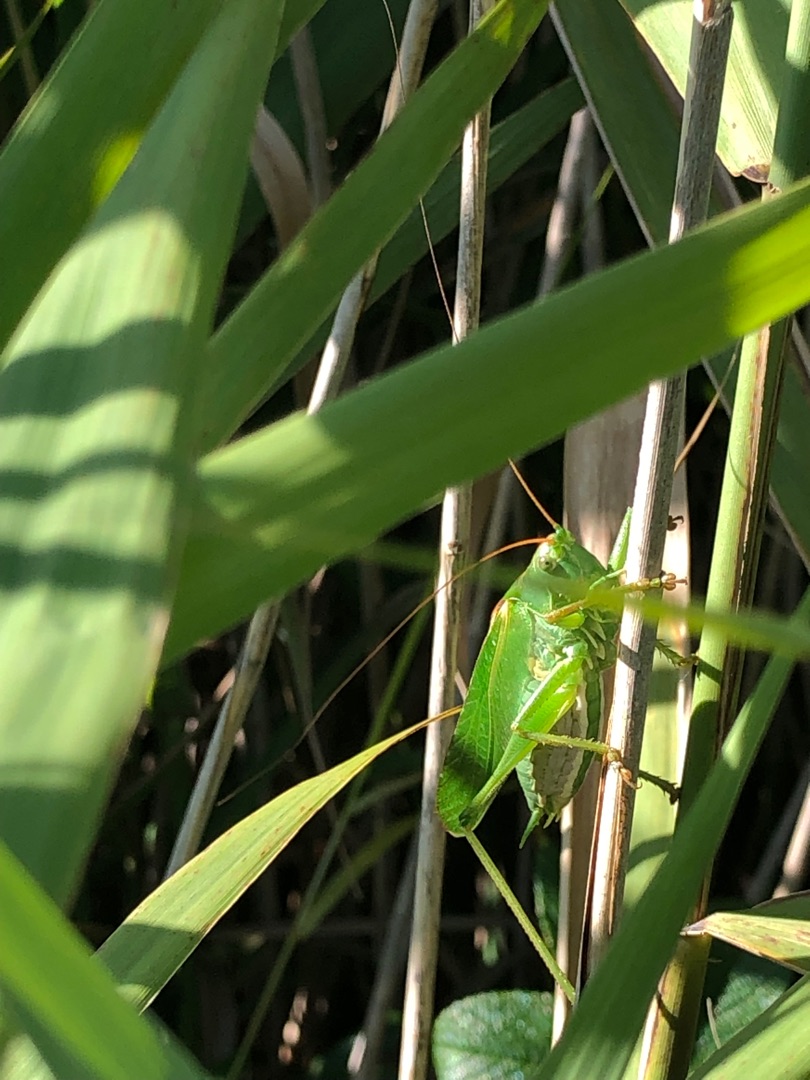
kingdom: Animalia
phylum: Arthropoda
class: Insecta
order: Orthoptera
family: Tettigoniidae
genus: Tettigonia
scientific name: Tettigonia viridissima
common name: Stor grøn løvgræshoppe
